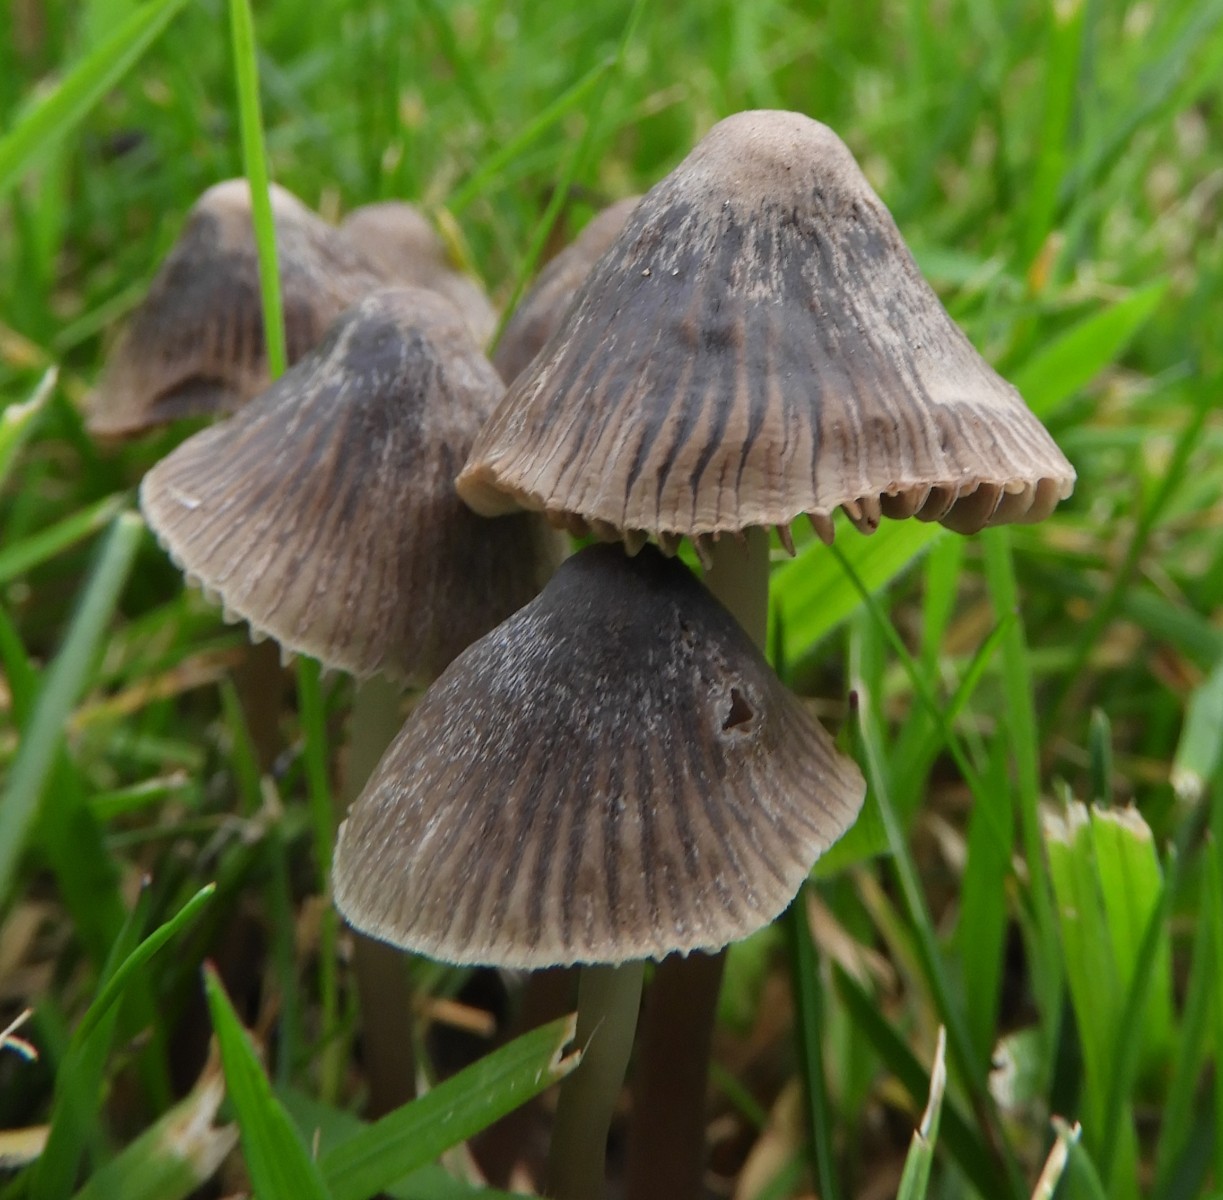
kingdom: Fungi
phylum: Basidiomycota
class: Agaricomycetes
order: Agaricales
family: Mycenaceae
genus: Mycena
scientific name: Mycena aetites
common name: plæne-huesvamp
